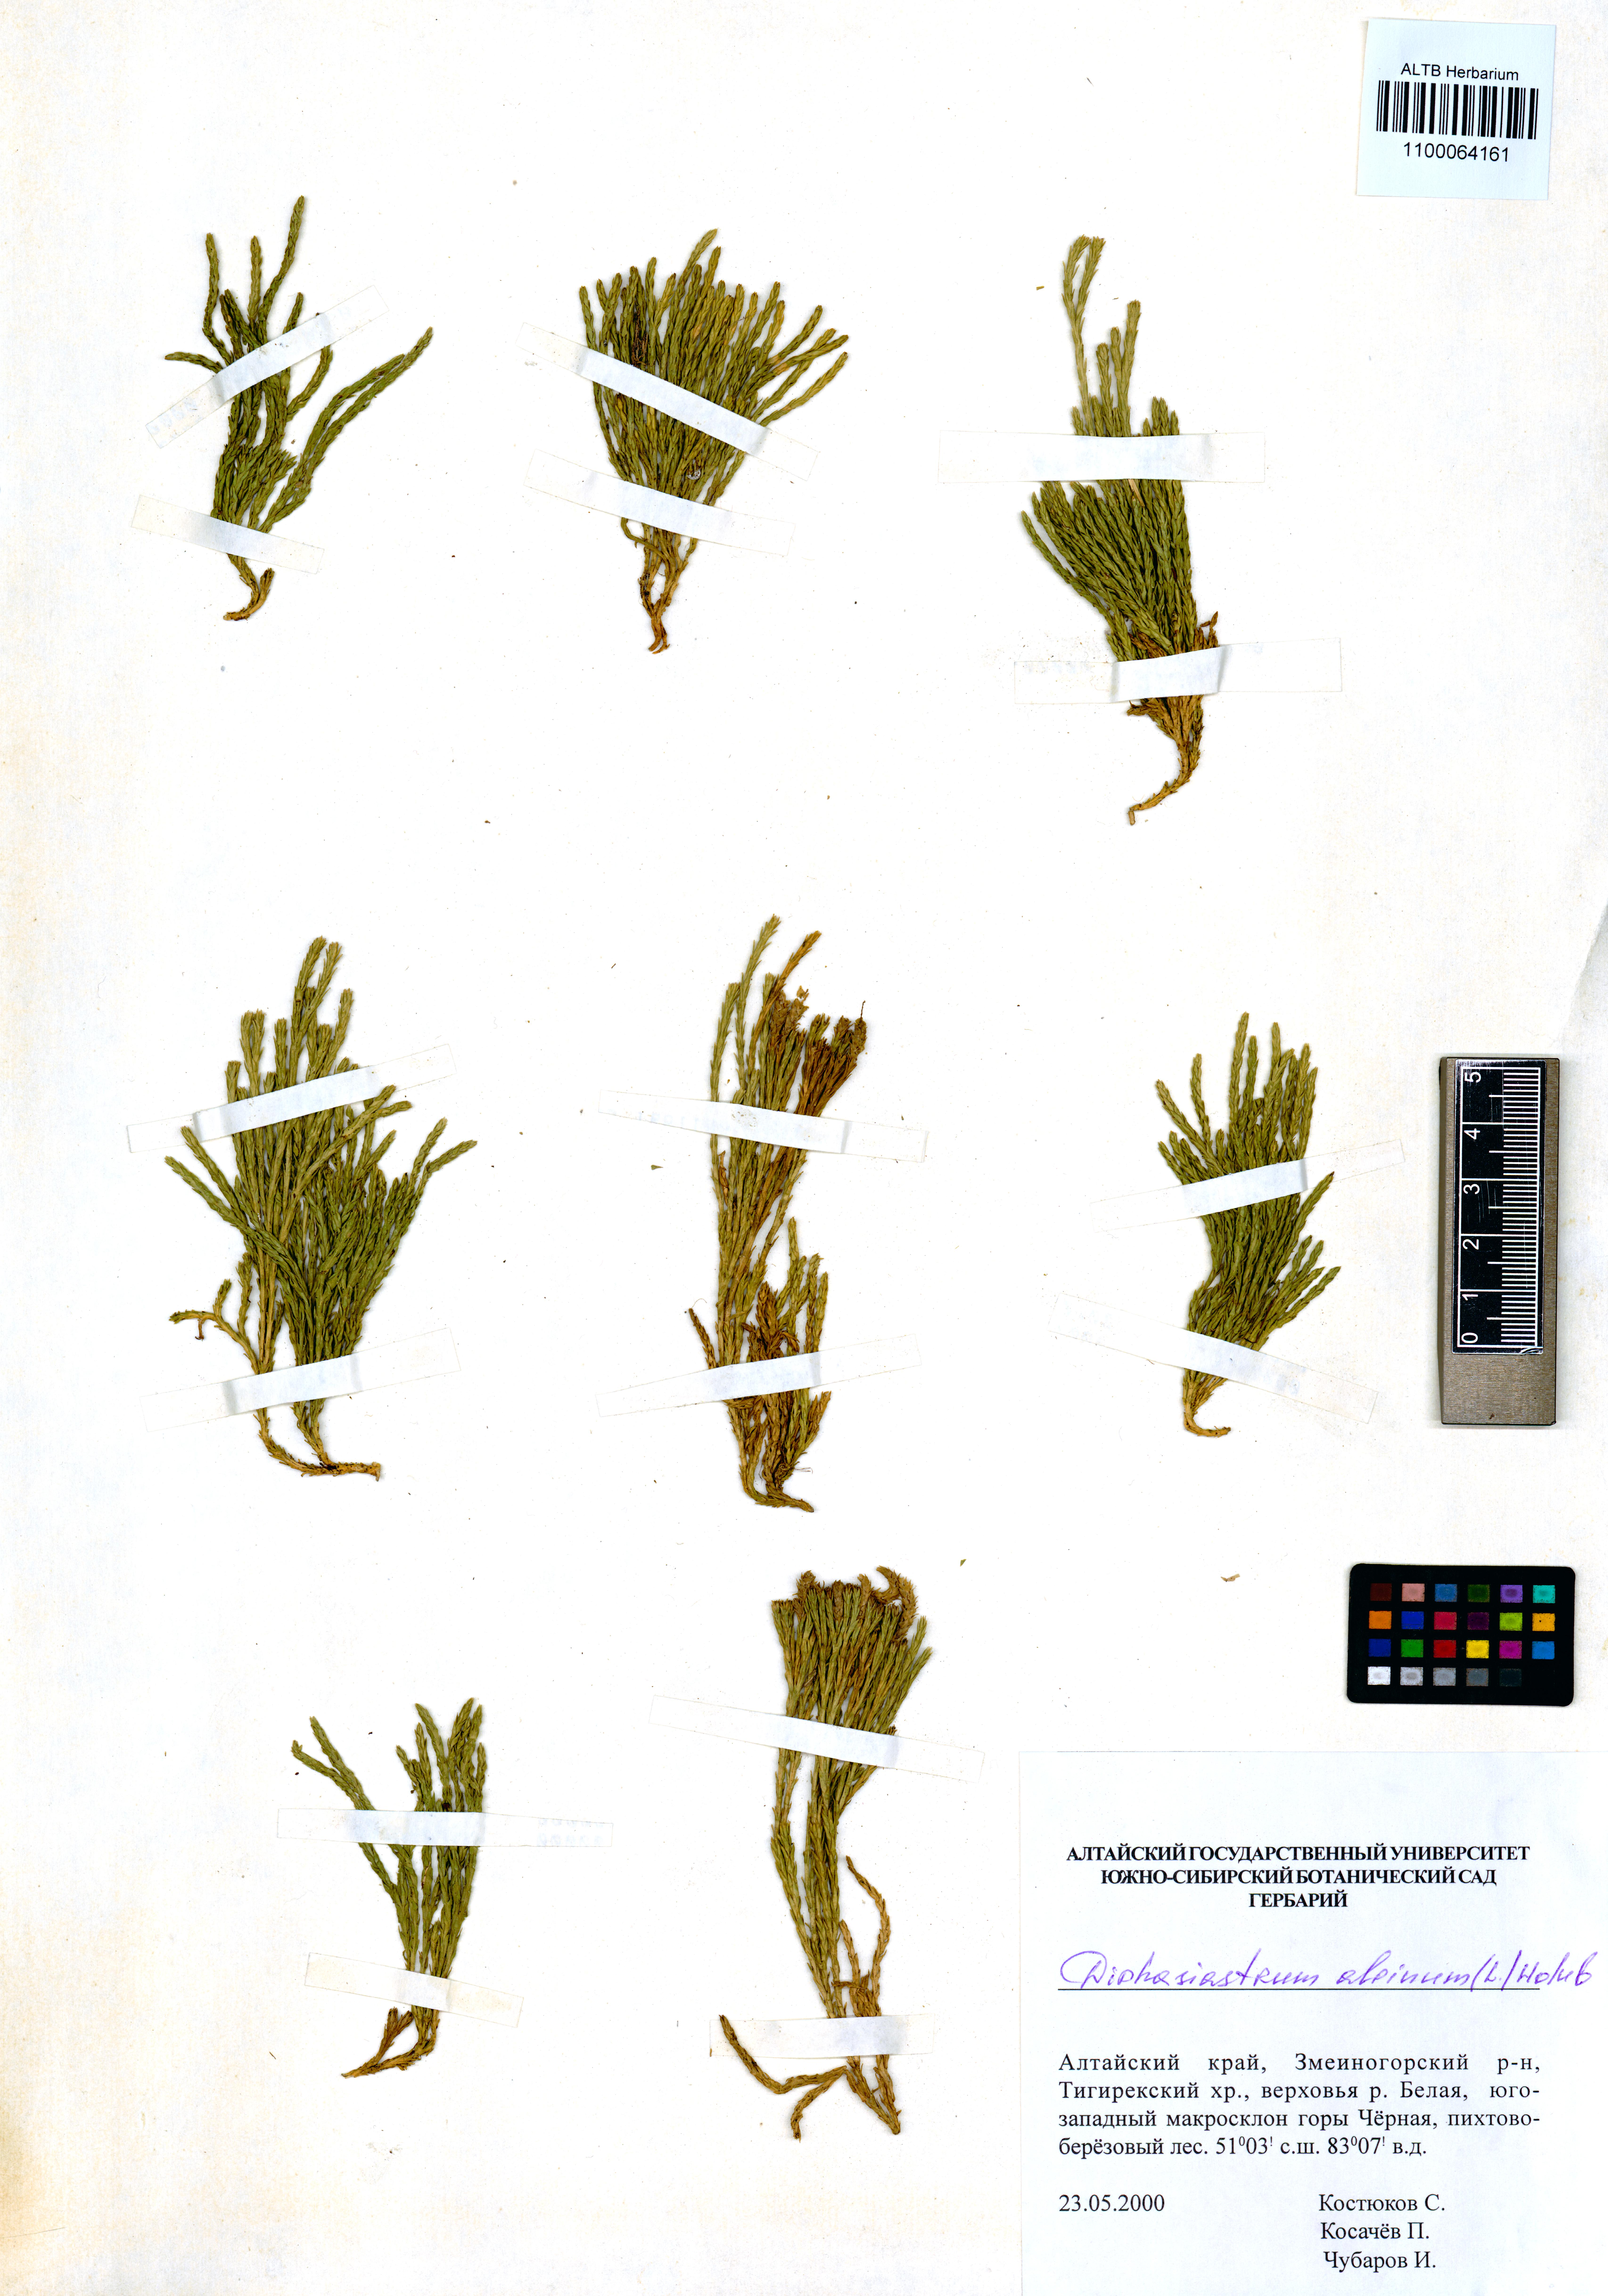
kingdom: Plantae
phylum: Tracheophyta
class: Lycopodiopsida
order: Lycopodiales
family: Lycopodiaceae
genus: Diphasiastrum
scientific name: Diphasiastrum alpinum
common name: Alpine clubmoss
